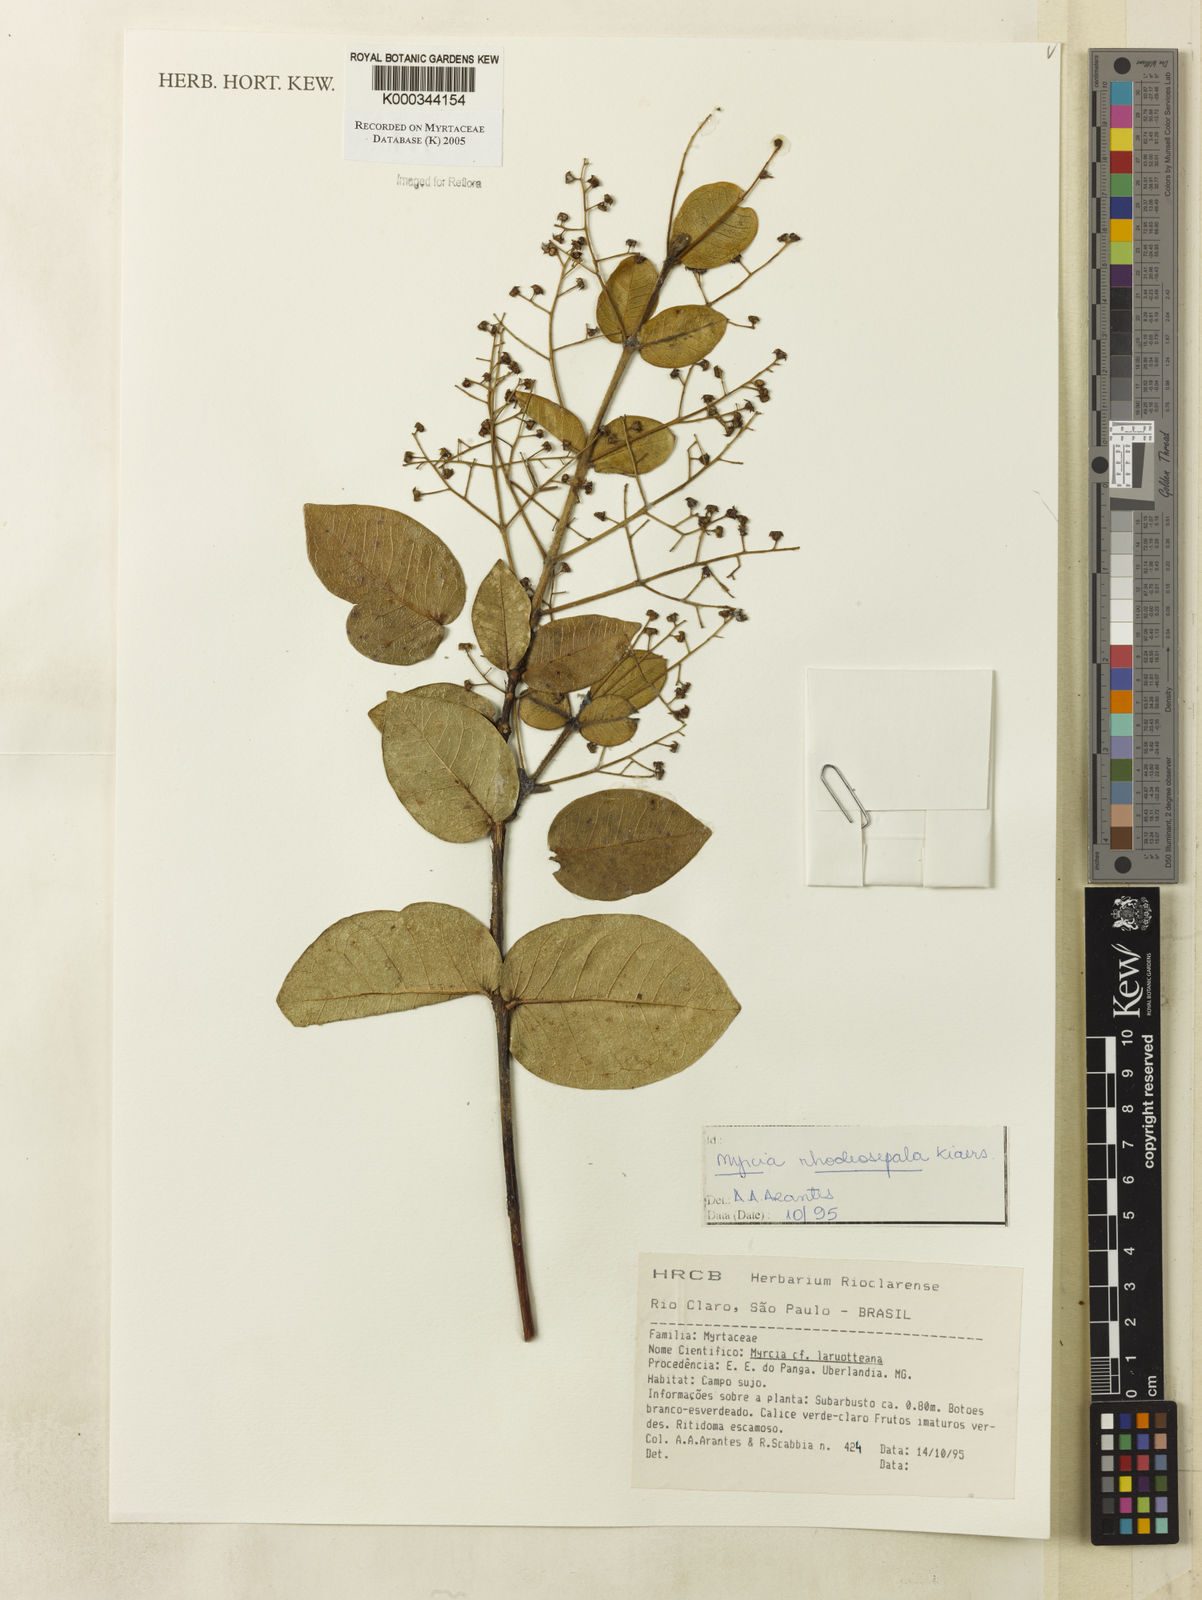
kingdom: Plantae
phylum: Tracheophyta
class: Magnoliopsida
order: Myrtales
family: Myrtaceae
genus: Myrcia
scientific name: Myrcia tomentosa
